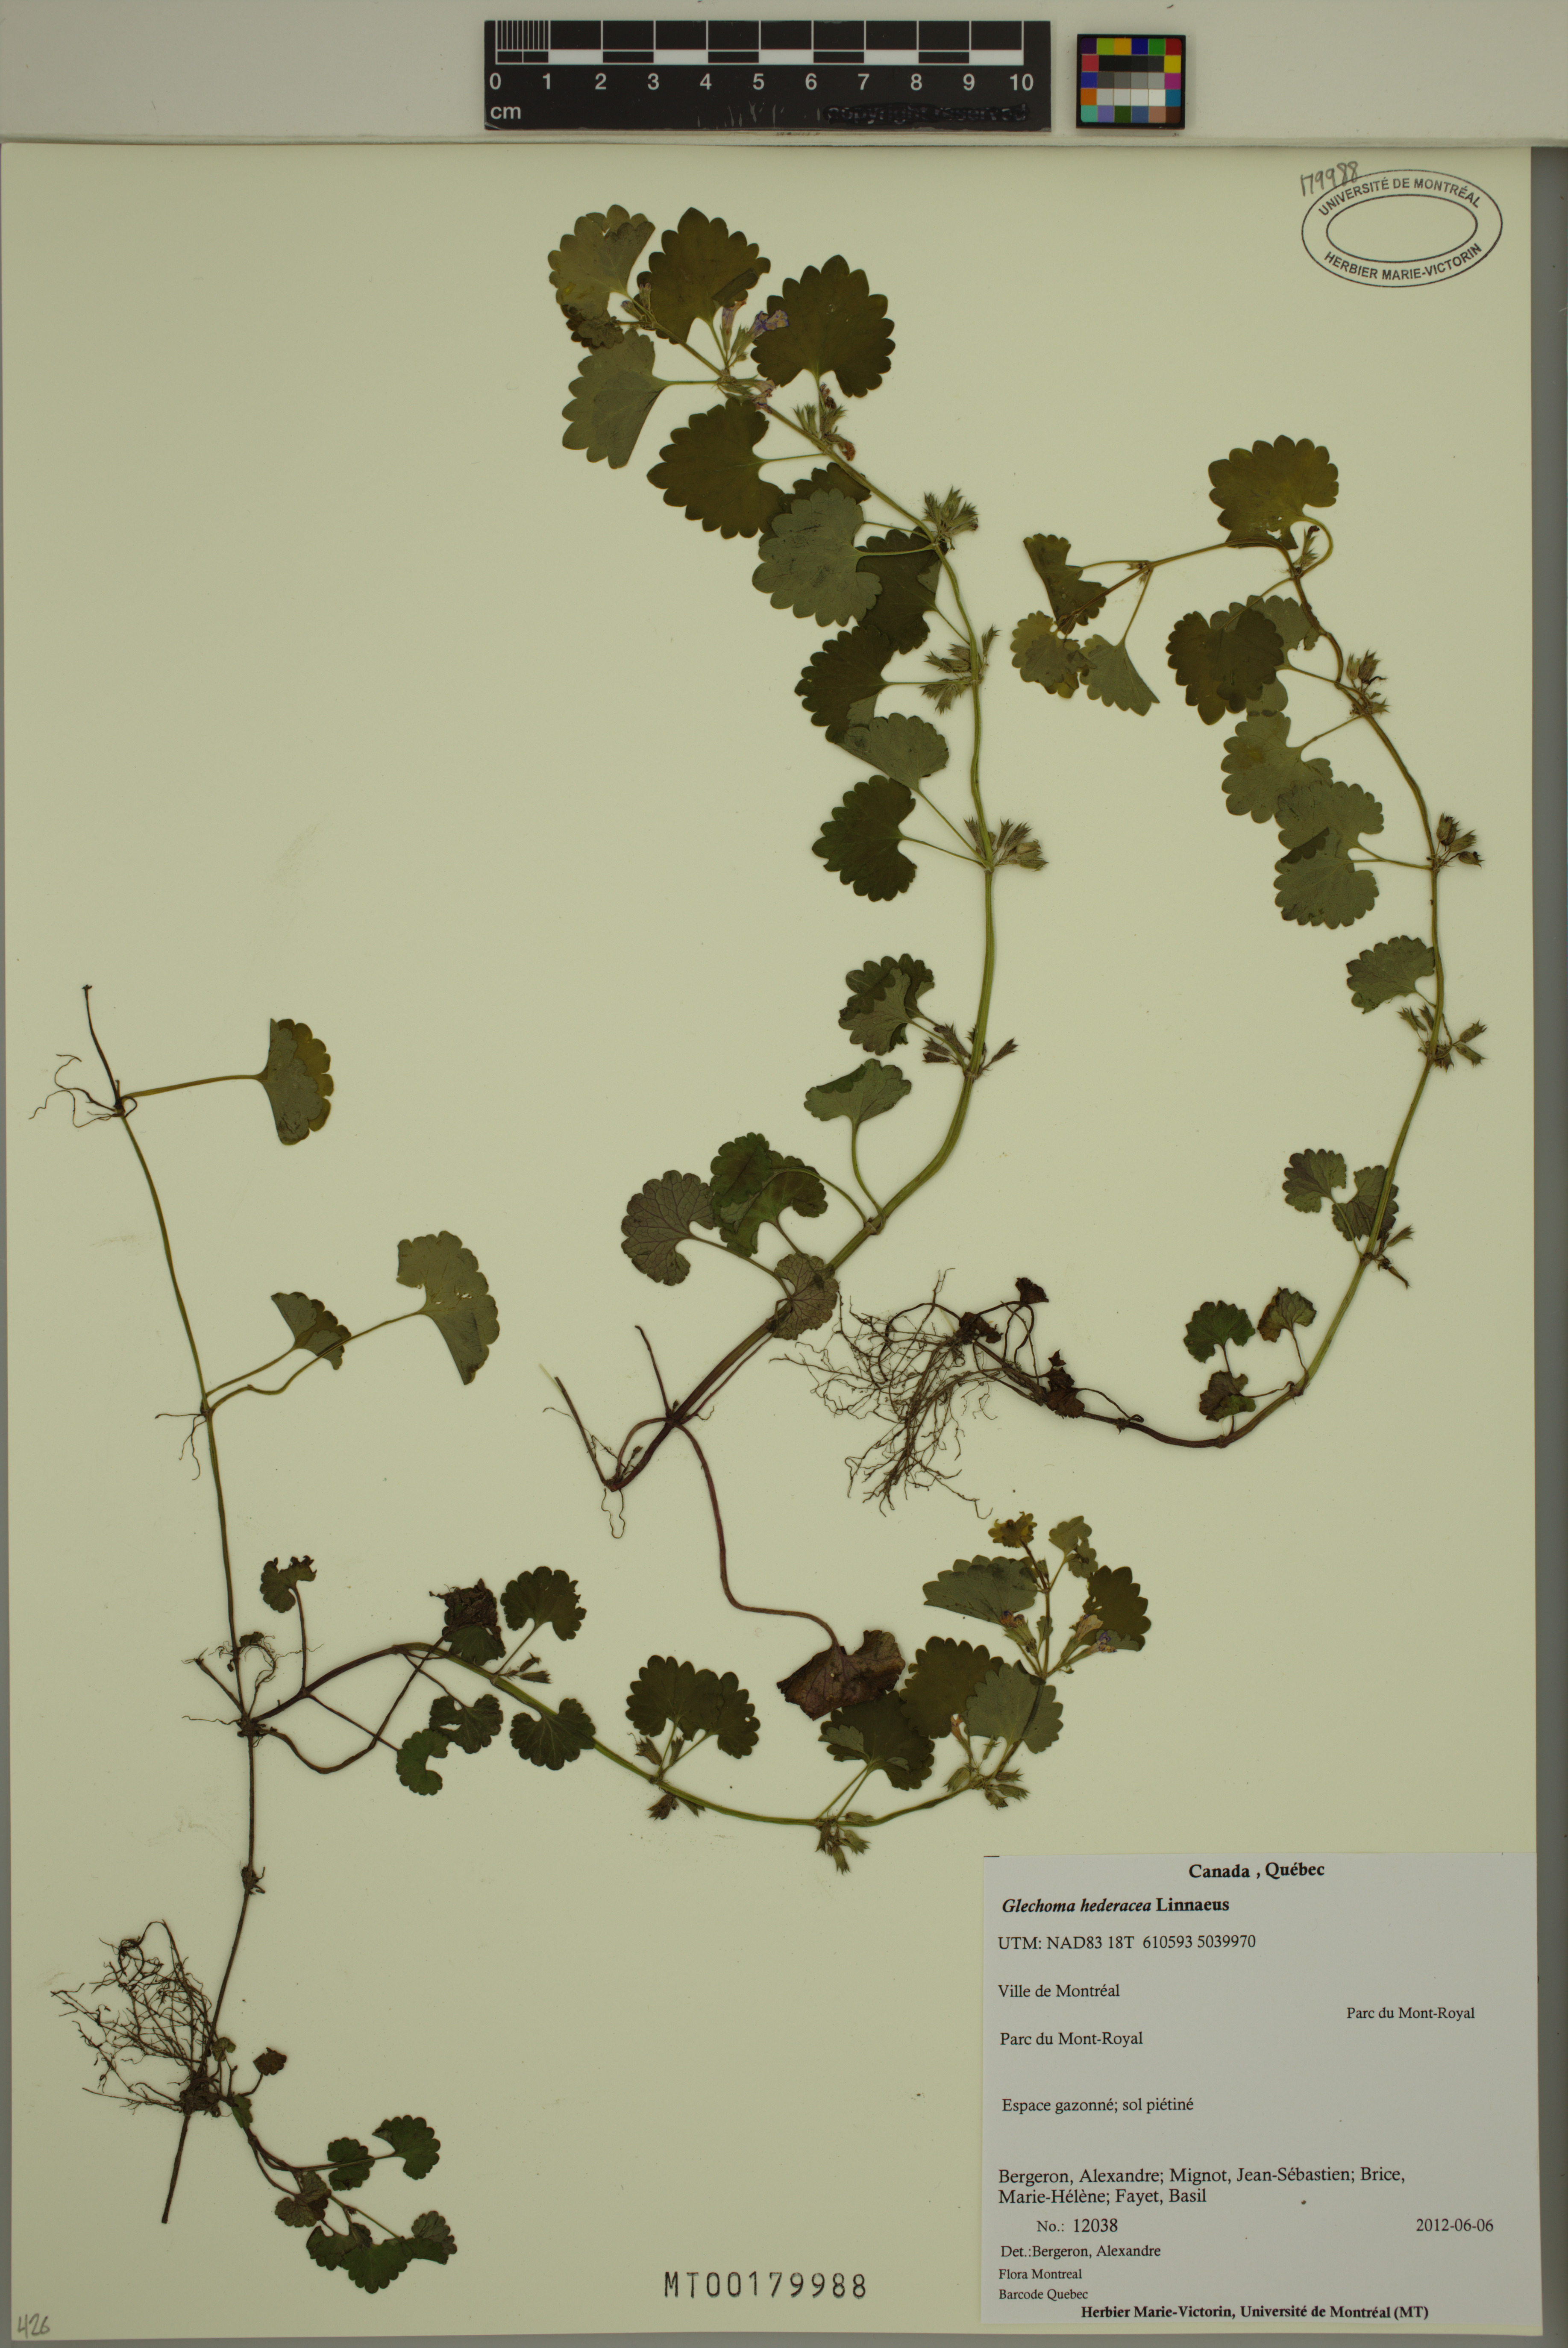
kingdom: Plantae
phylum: Tracheophyta
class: Magnoliopsida
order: Lamiales
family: Lamiaceae
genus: Glechoma
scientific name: Glechoma hederacea
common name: Ground ivy
